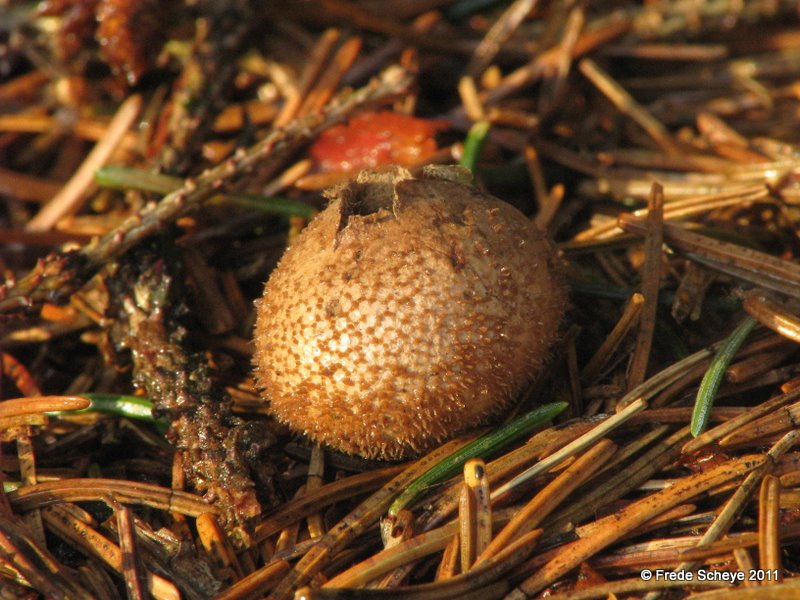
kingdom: Fungi
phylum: Basidiomycota
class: Agaricomycetes
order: Agaricales
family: Lycoperdaceae
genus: Lycoperdon
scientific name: Lycoperdon nigrescens
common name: sortagtig støvbold
